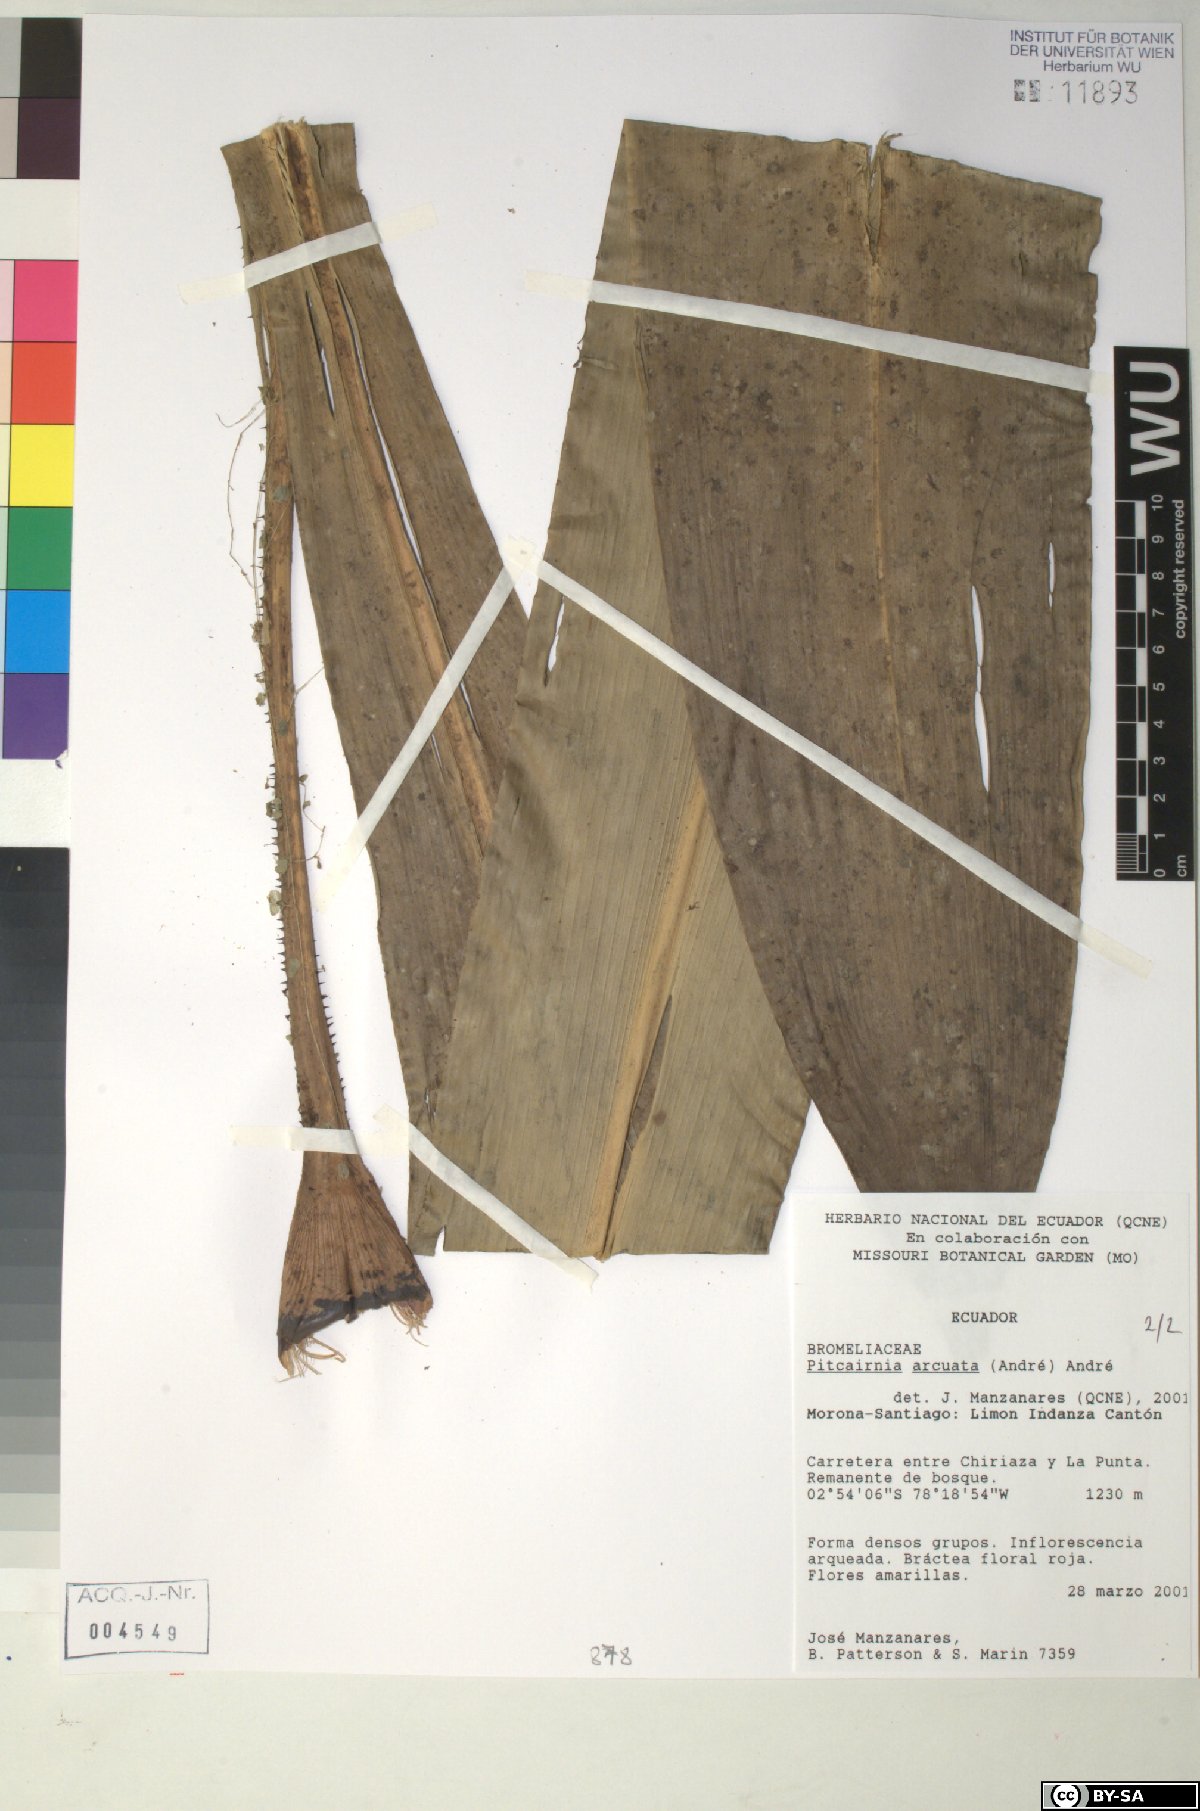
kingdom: Plantae
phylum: Tracheophyta
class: Liliopsida
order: Poales
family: Bromeliaceae
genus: Pitcairnia
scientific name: Pitcairnia arcuata
